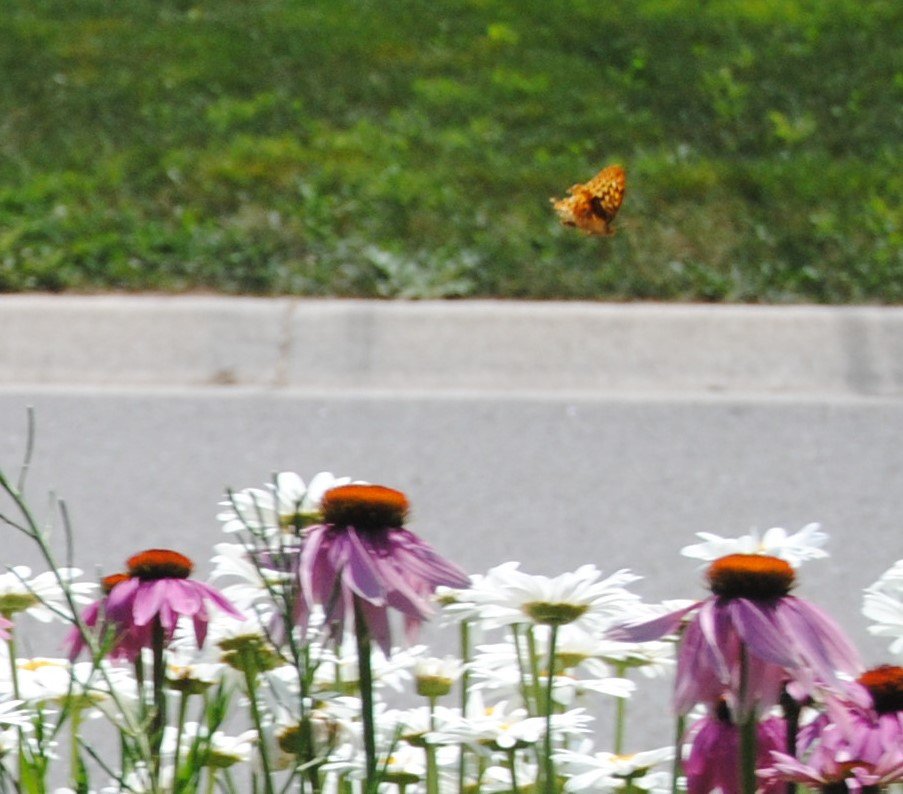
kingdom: Animalia
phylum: Arthropoda
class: Insecta
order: Lepidoptera
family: Nymphalidae
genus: Speyeria
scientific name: Speyeria
